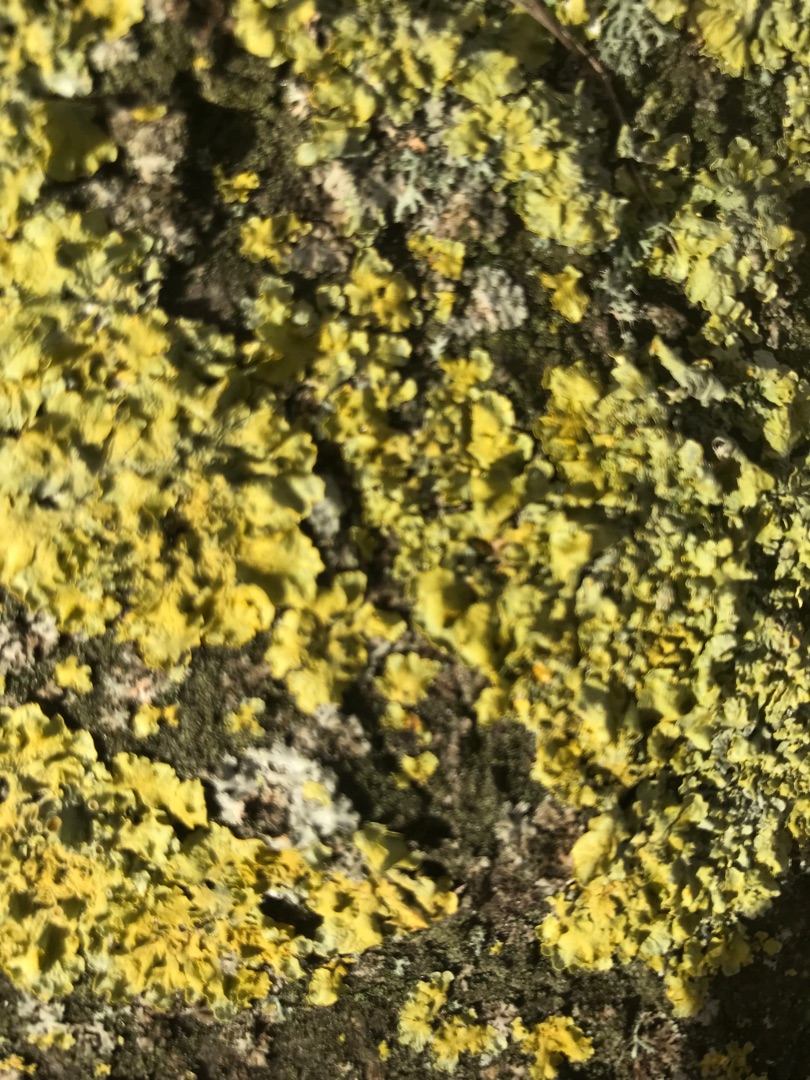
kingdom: Fungi
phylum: Ascomycota
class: Lecanoromycetes
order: Teloschistales
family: Teloschistaceae
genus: Xanthoria
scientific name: Xanthoria parietina
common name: Almindelig væggelav
